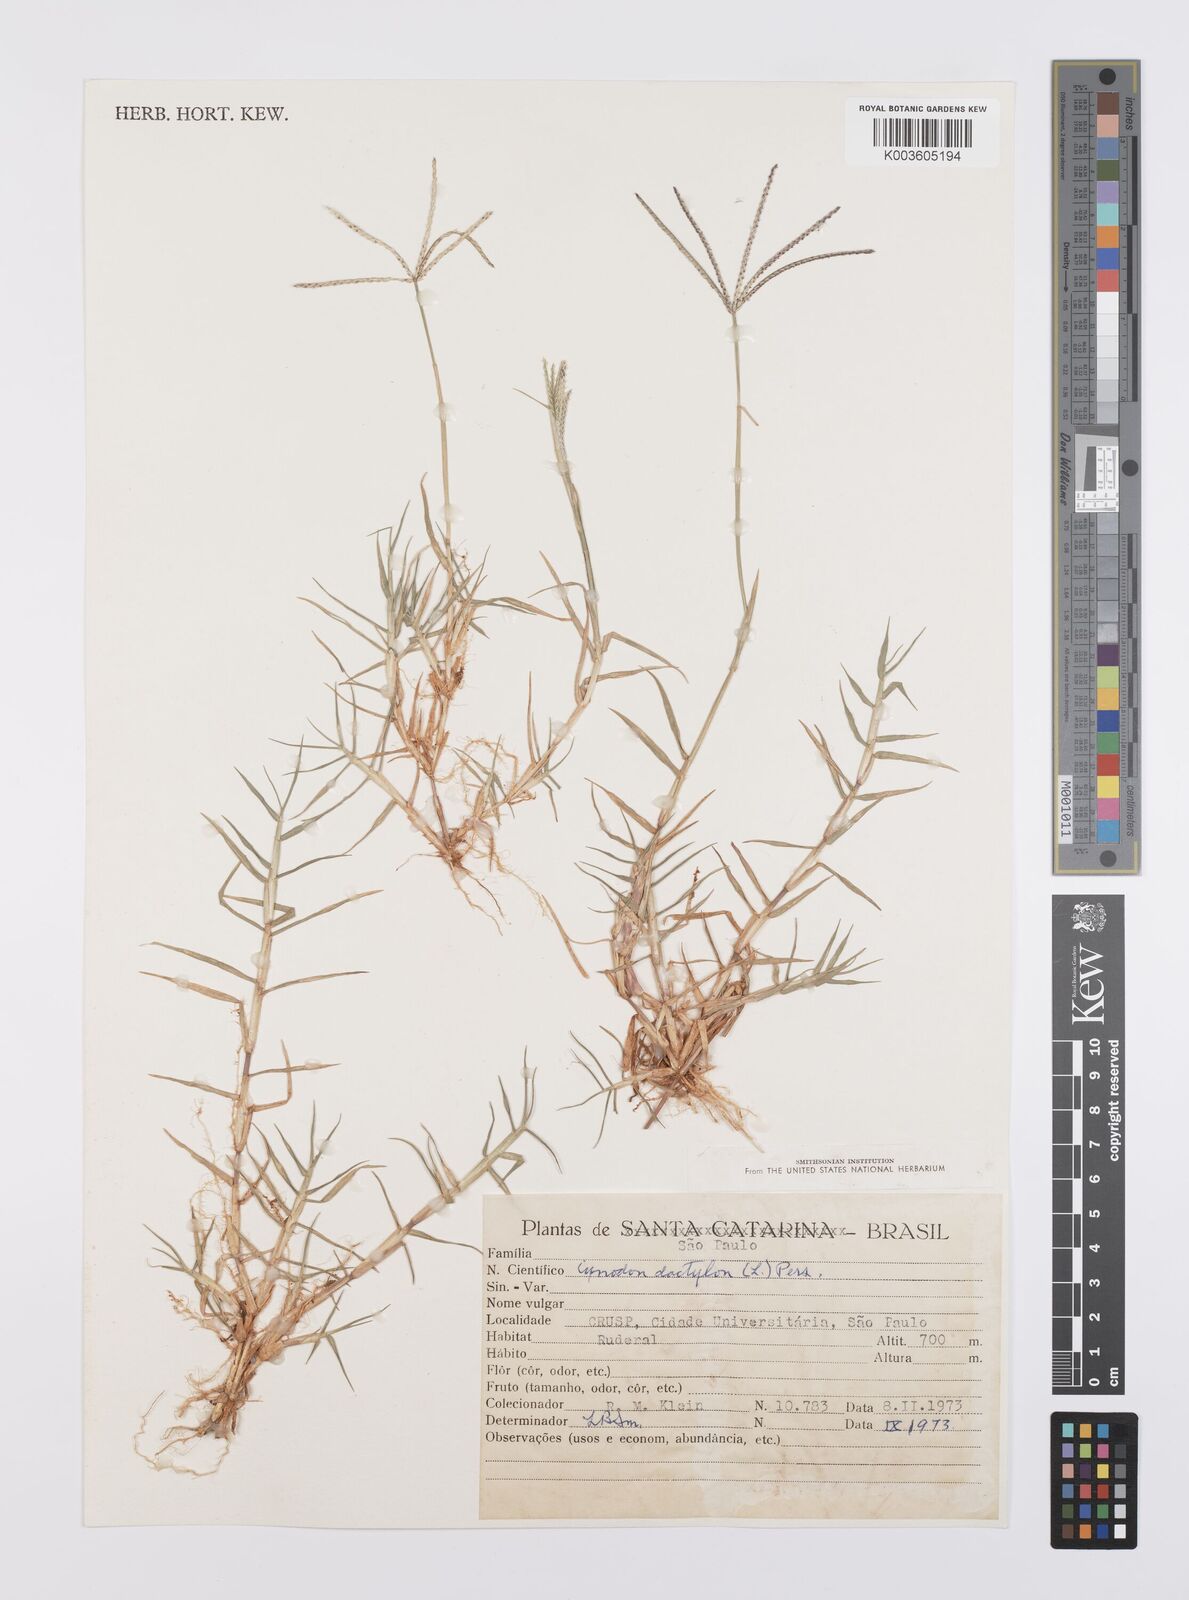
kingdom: Plantae
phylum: Tracheophyta
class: Liliopsida
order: Poales
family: Poaceae
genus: Cynodon
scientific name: Cynodon dactylon
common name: Bermuda grass
